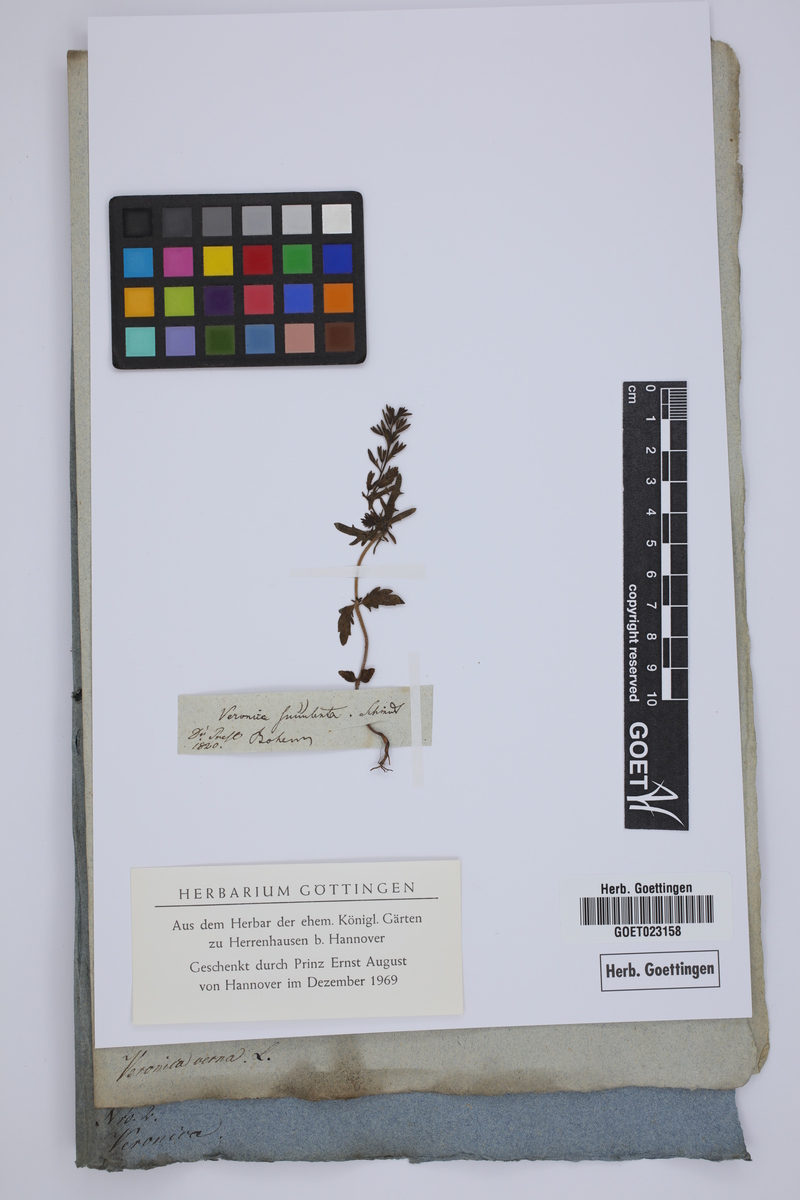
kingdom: Plantae
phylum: Tracheophyta
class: Magnoliopsida
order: Lamiales
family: Plantaginaceae
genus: Veronica
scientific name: Veronica verna
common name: Spring speedwell
